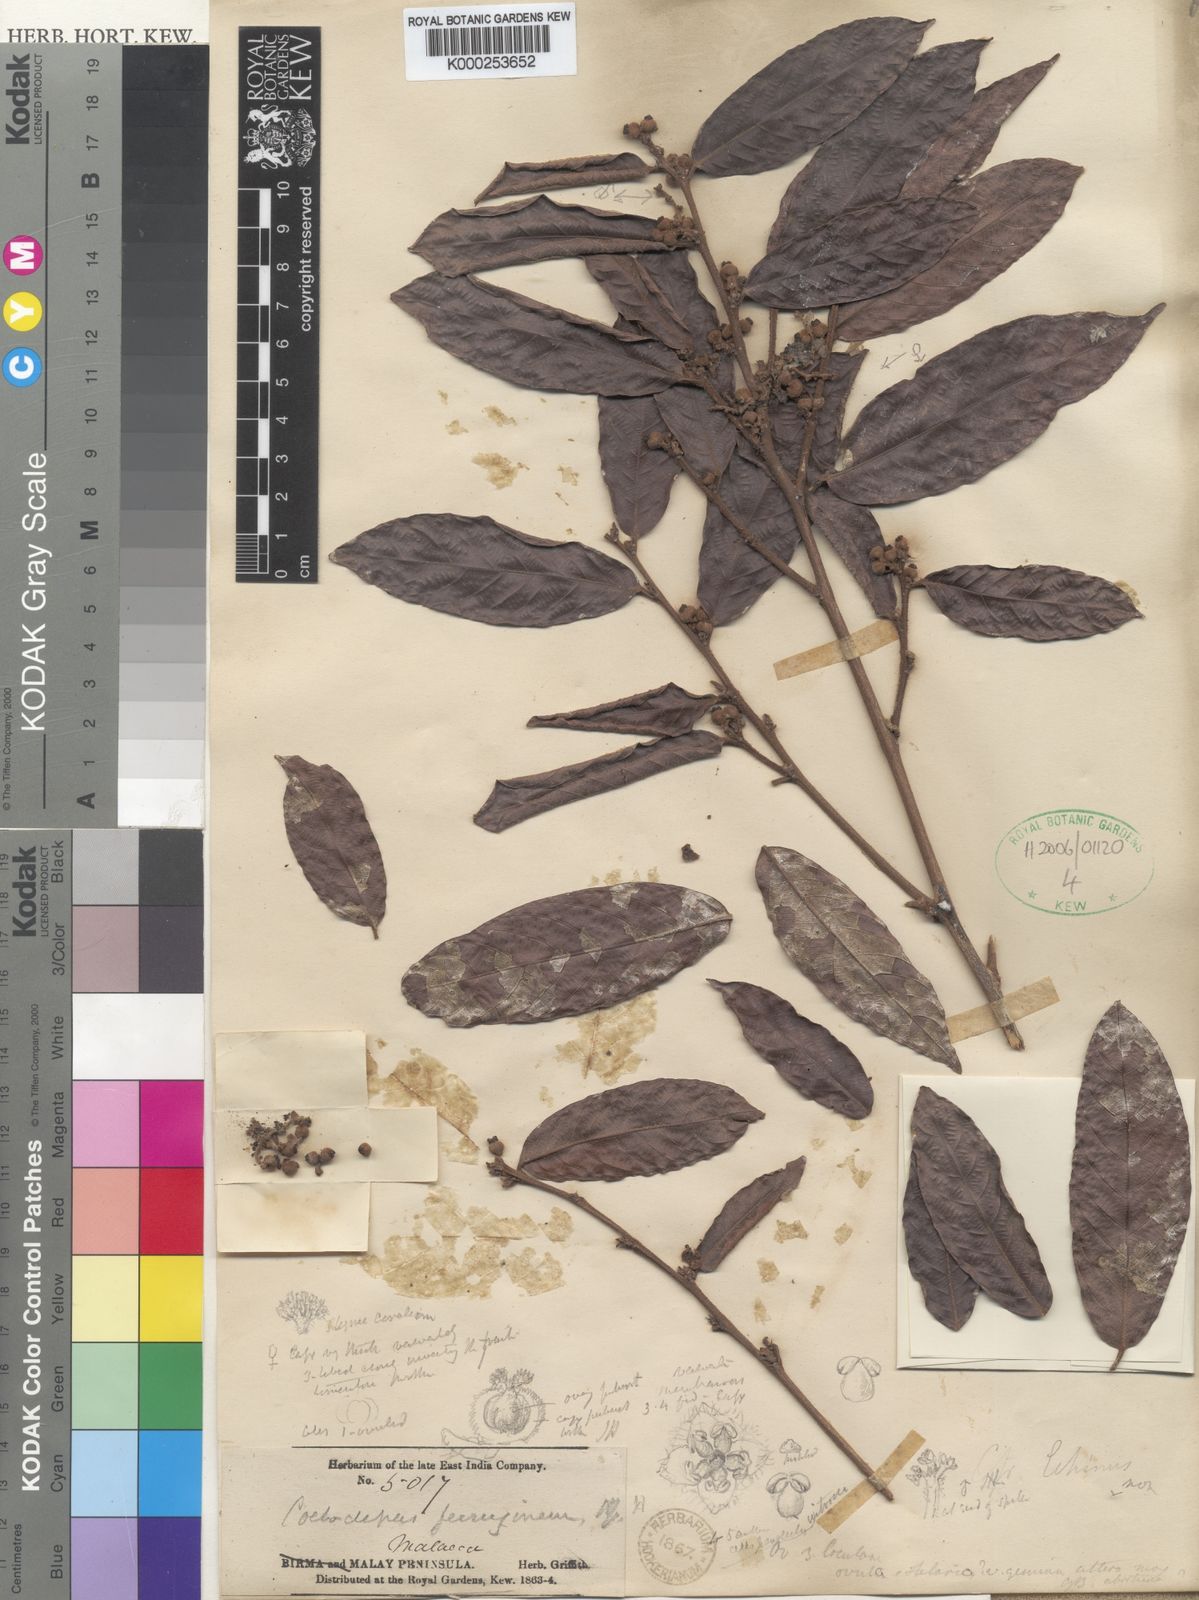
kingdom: Plantae
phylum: Tracheophyta
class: Magnoliopsida
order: Malpighiales
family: Euphorbiaceae
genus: Koilodepas
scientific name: Koilodepas ferrugineum
